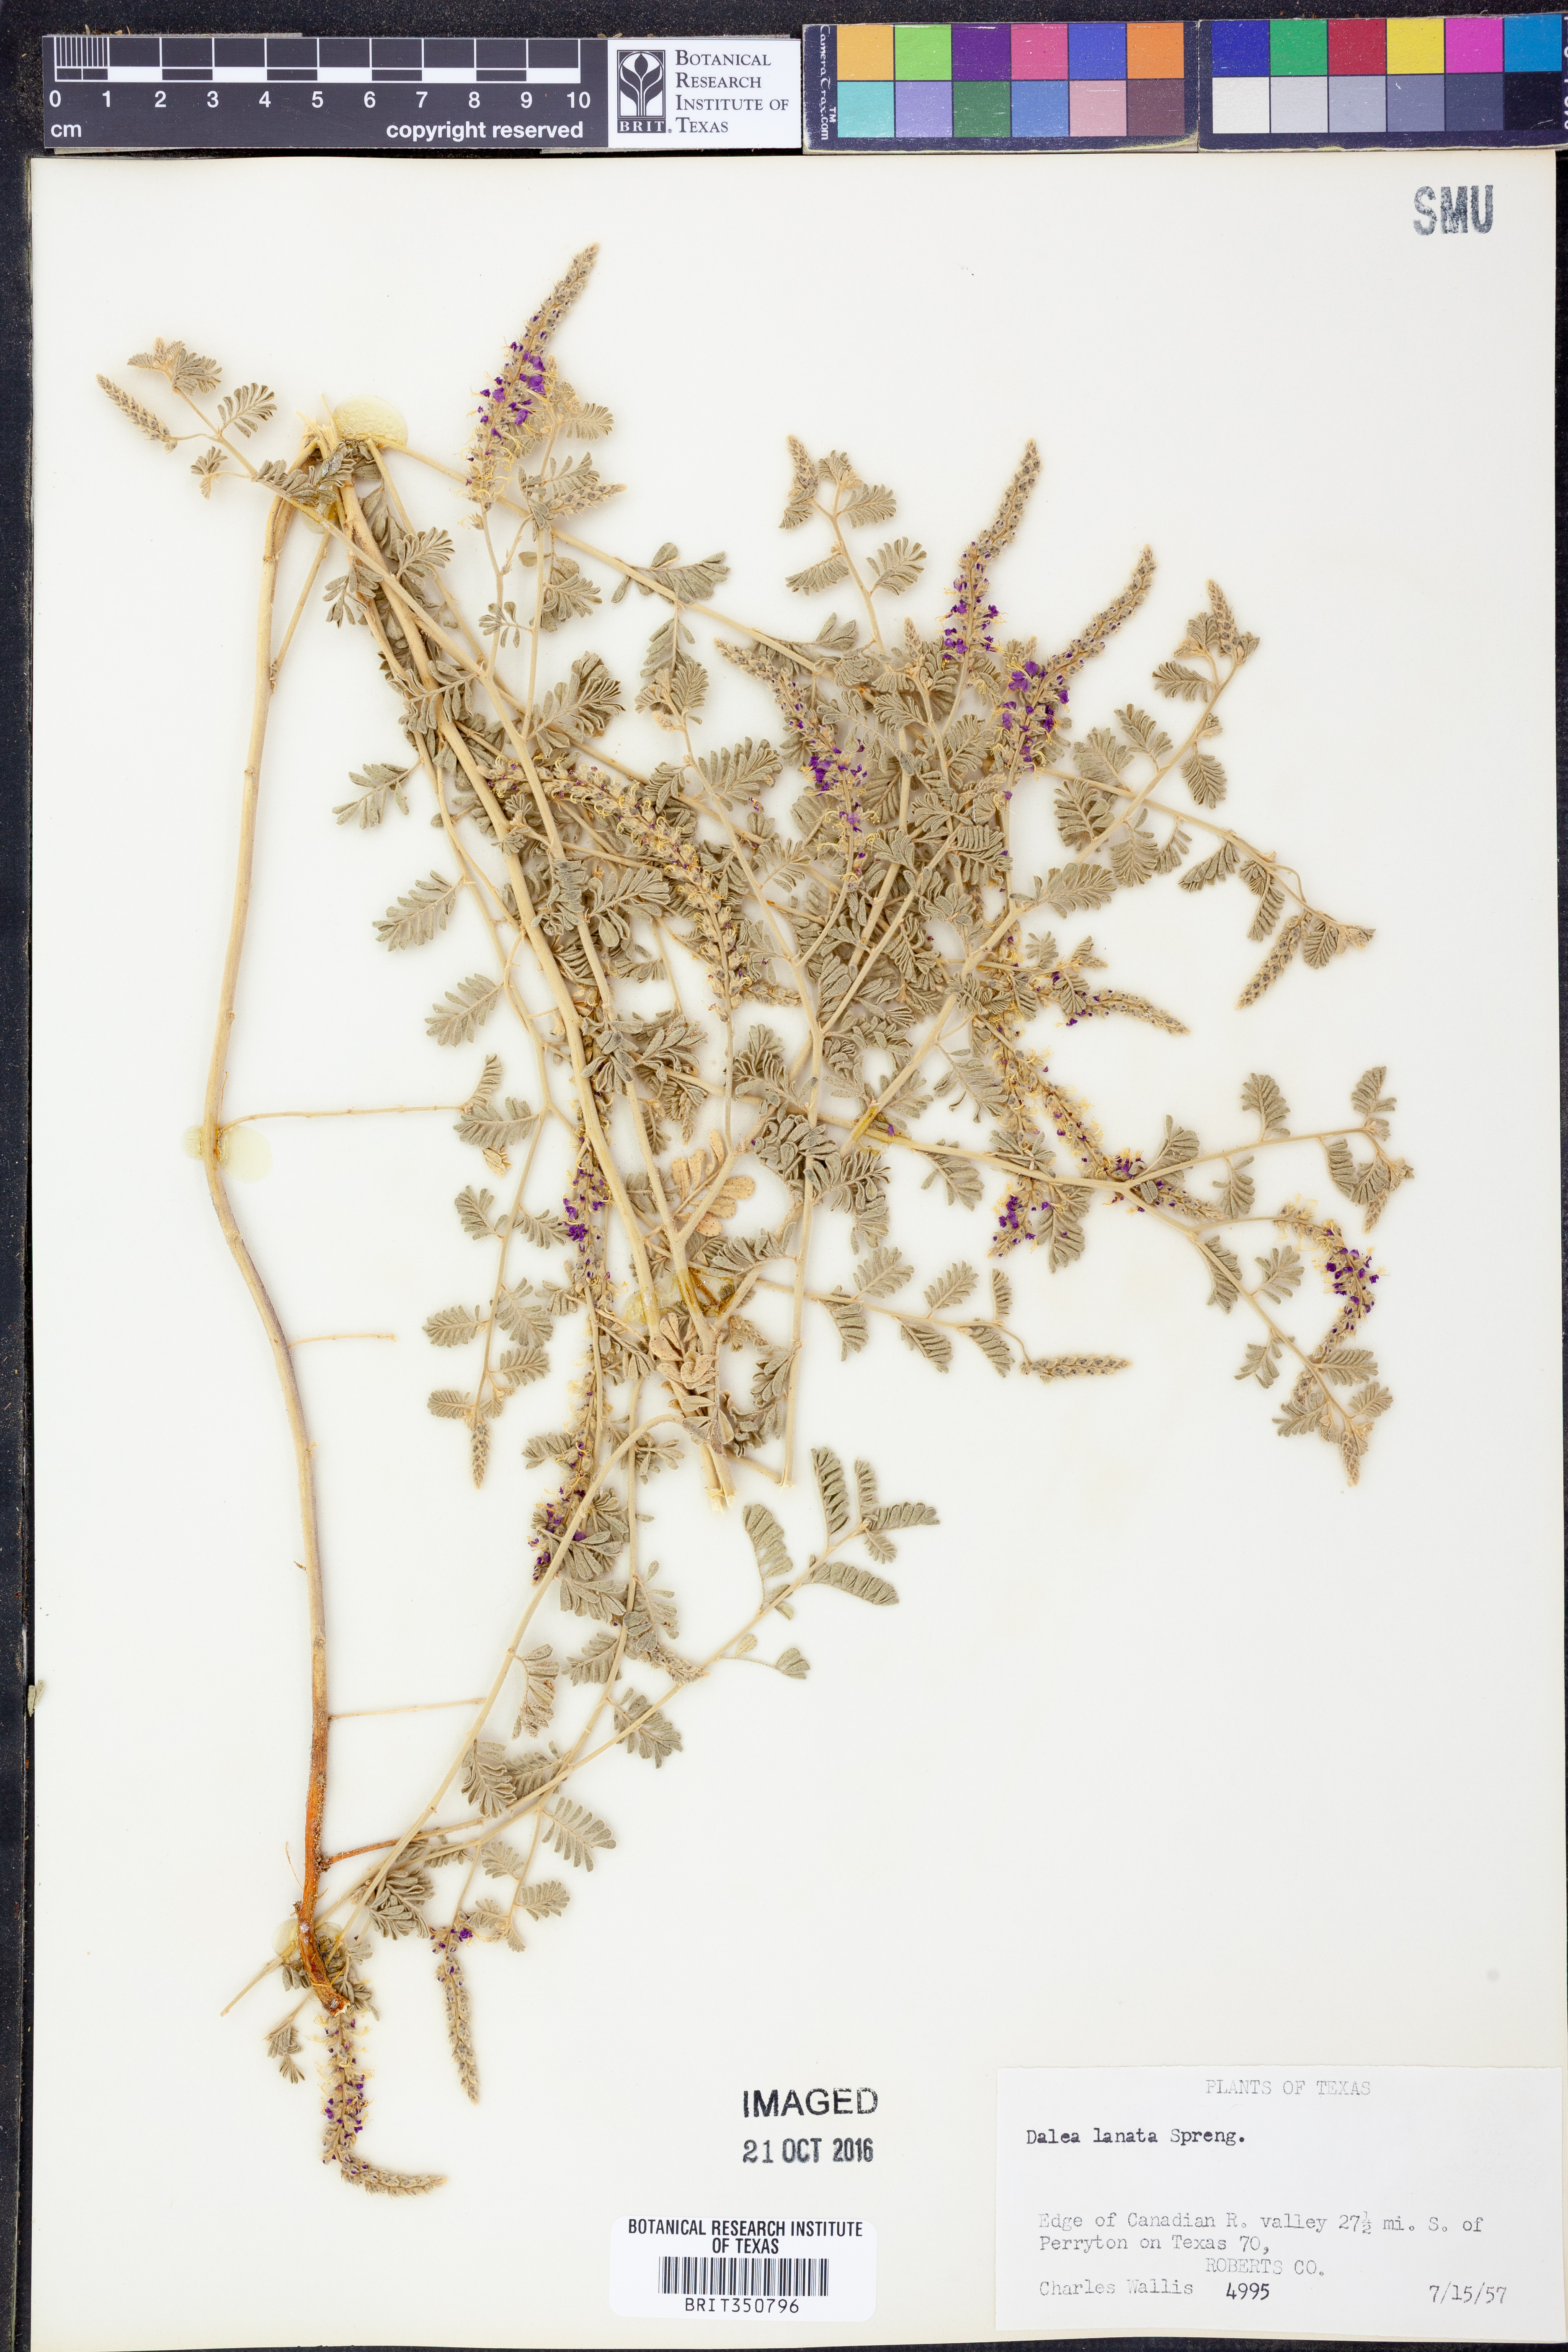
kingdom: Plantae
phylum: Tracheophyta
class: Magnoliopsida
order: Fabales
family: Fabaceae
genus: Dalea
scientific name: Dalea lanata
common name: Woolly dalea
